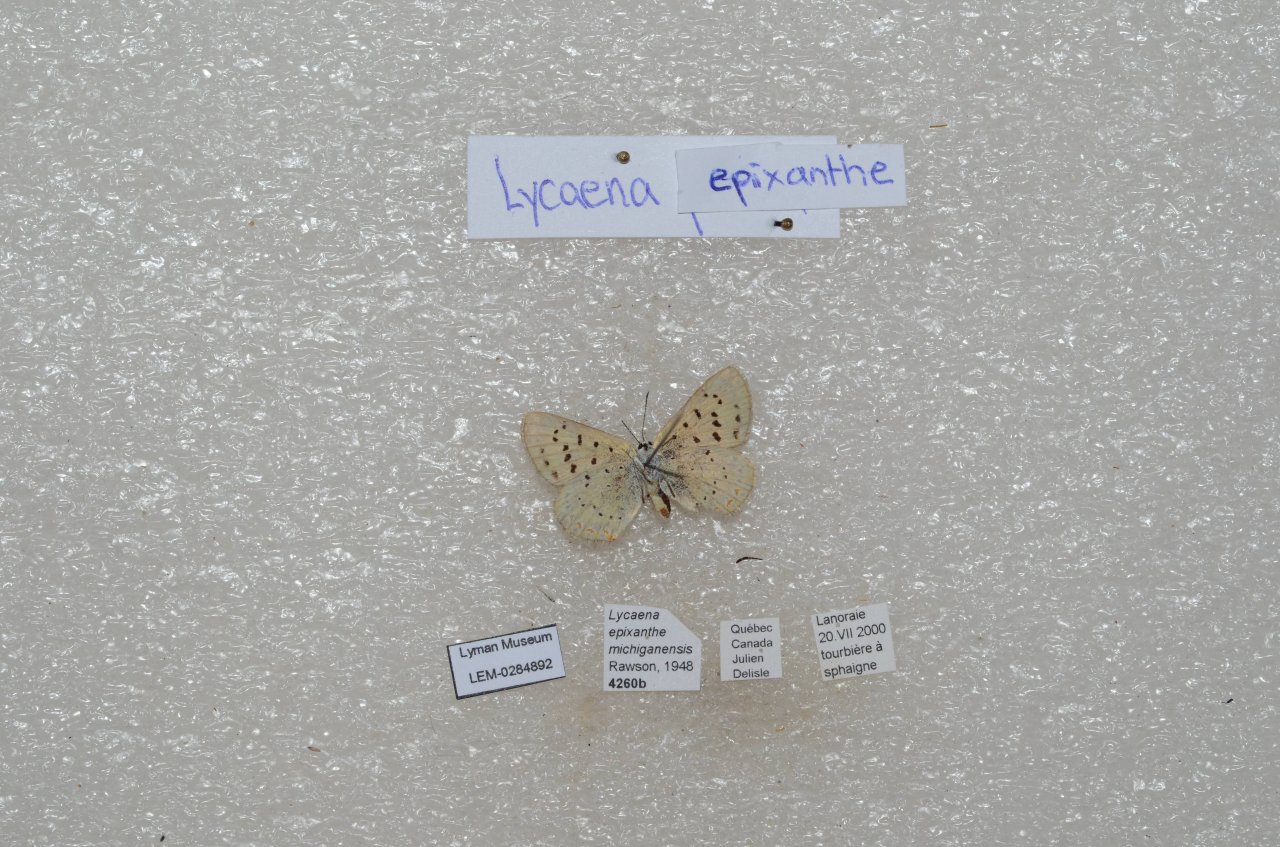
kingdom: Animalia
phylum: Arthropoda
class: Insecta
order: Lepidoptera
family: Sesiidae
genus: Sesia
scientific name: Sesia Lycaena epixanthe
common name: Bog Copper
